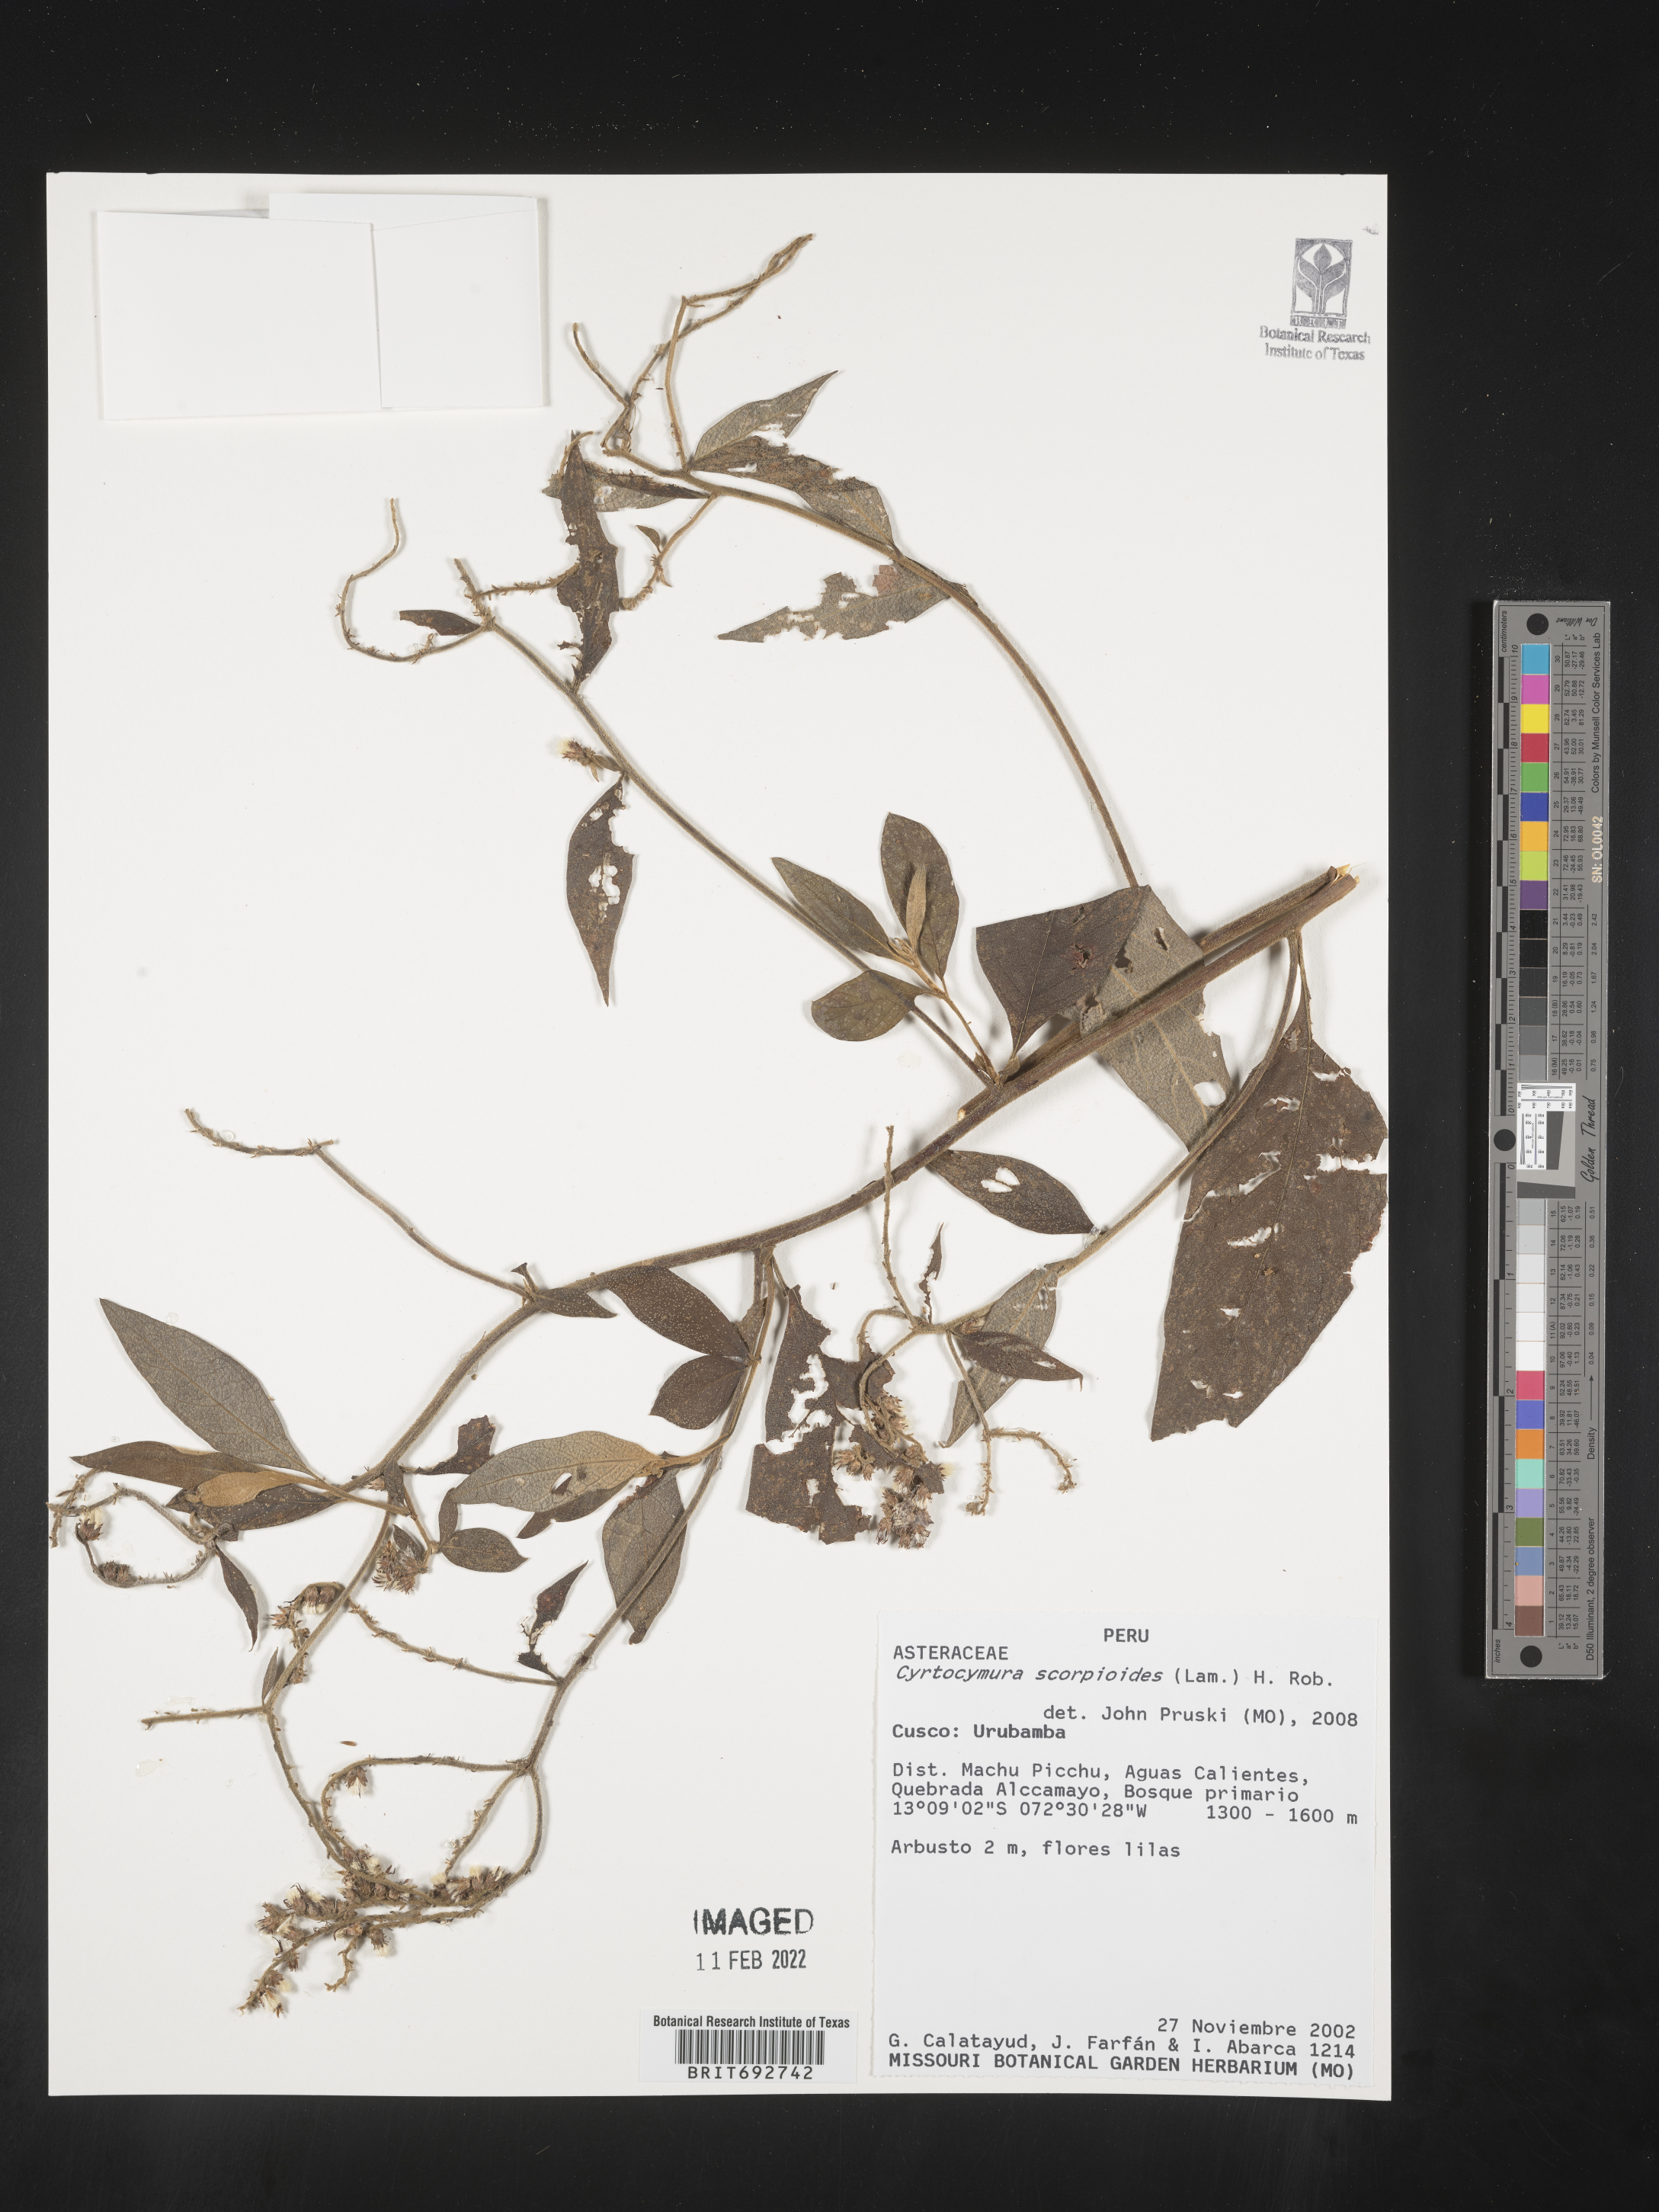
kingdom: Plantae
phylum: Tracheophyta
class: Magnoliopsida
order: Asterales
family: Asteraceae
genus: Cyrtocymura
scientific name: Cyrtocymura
